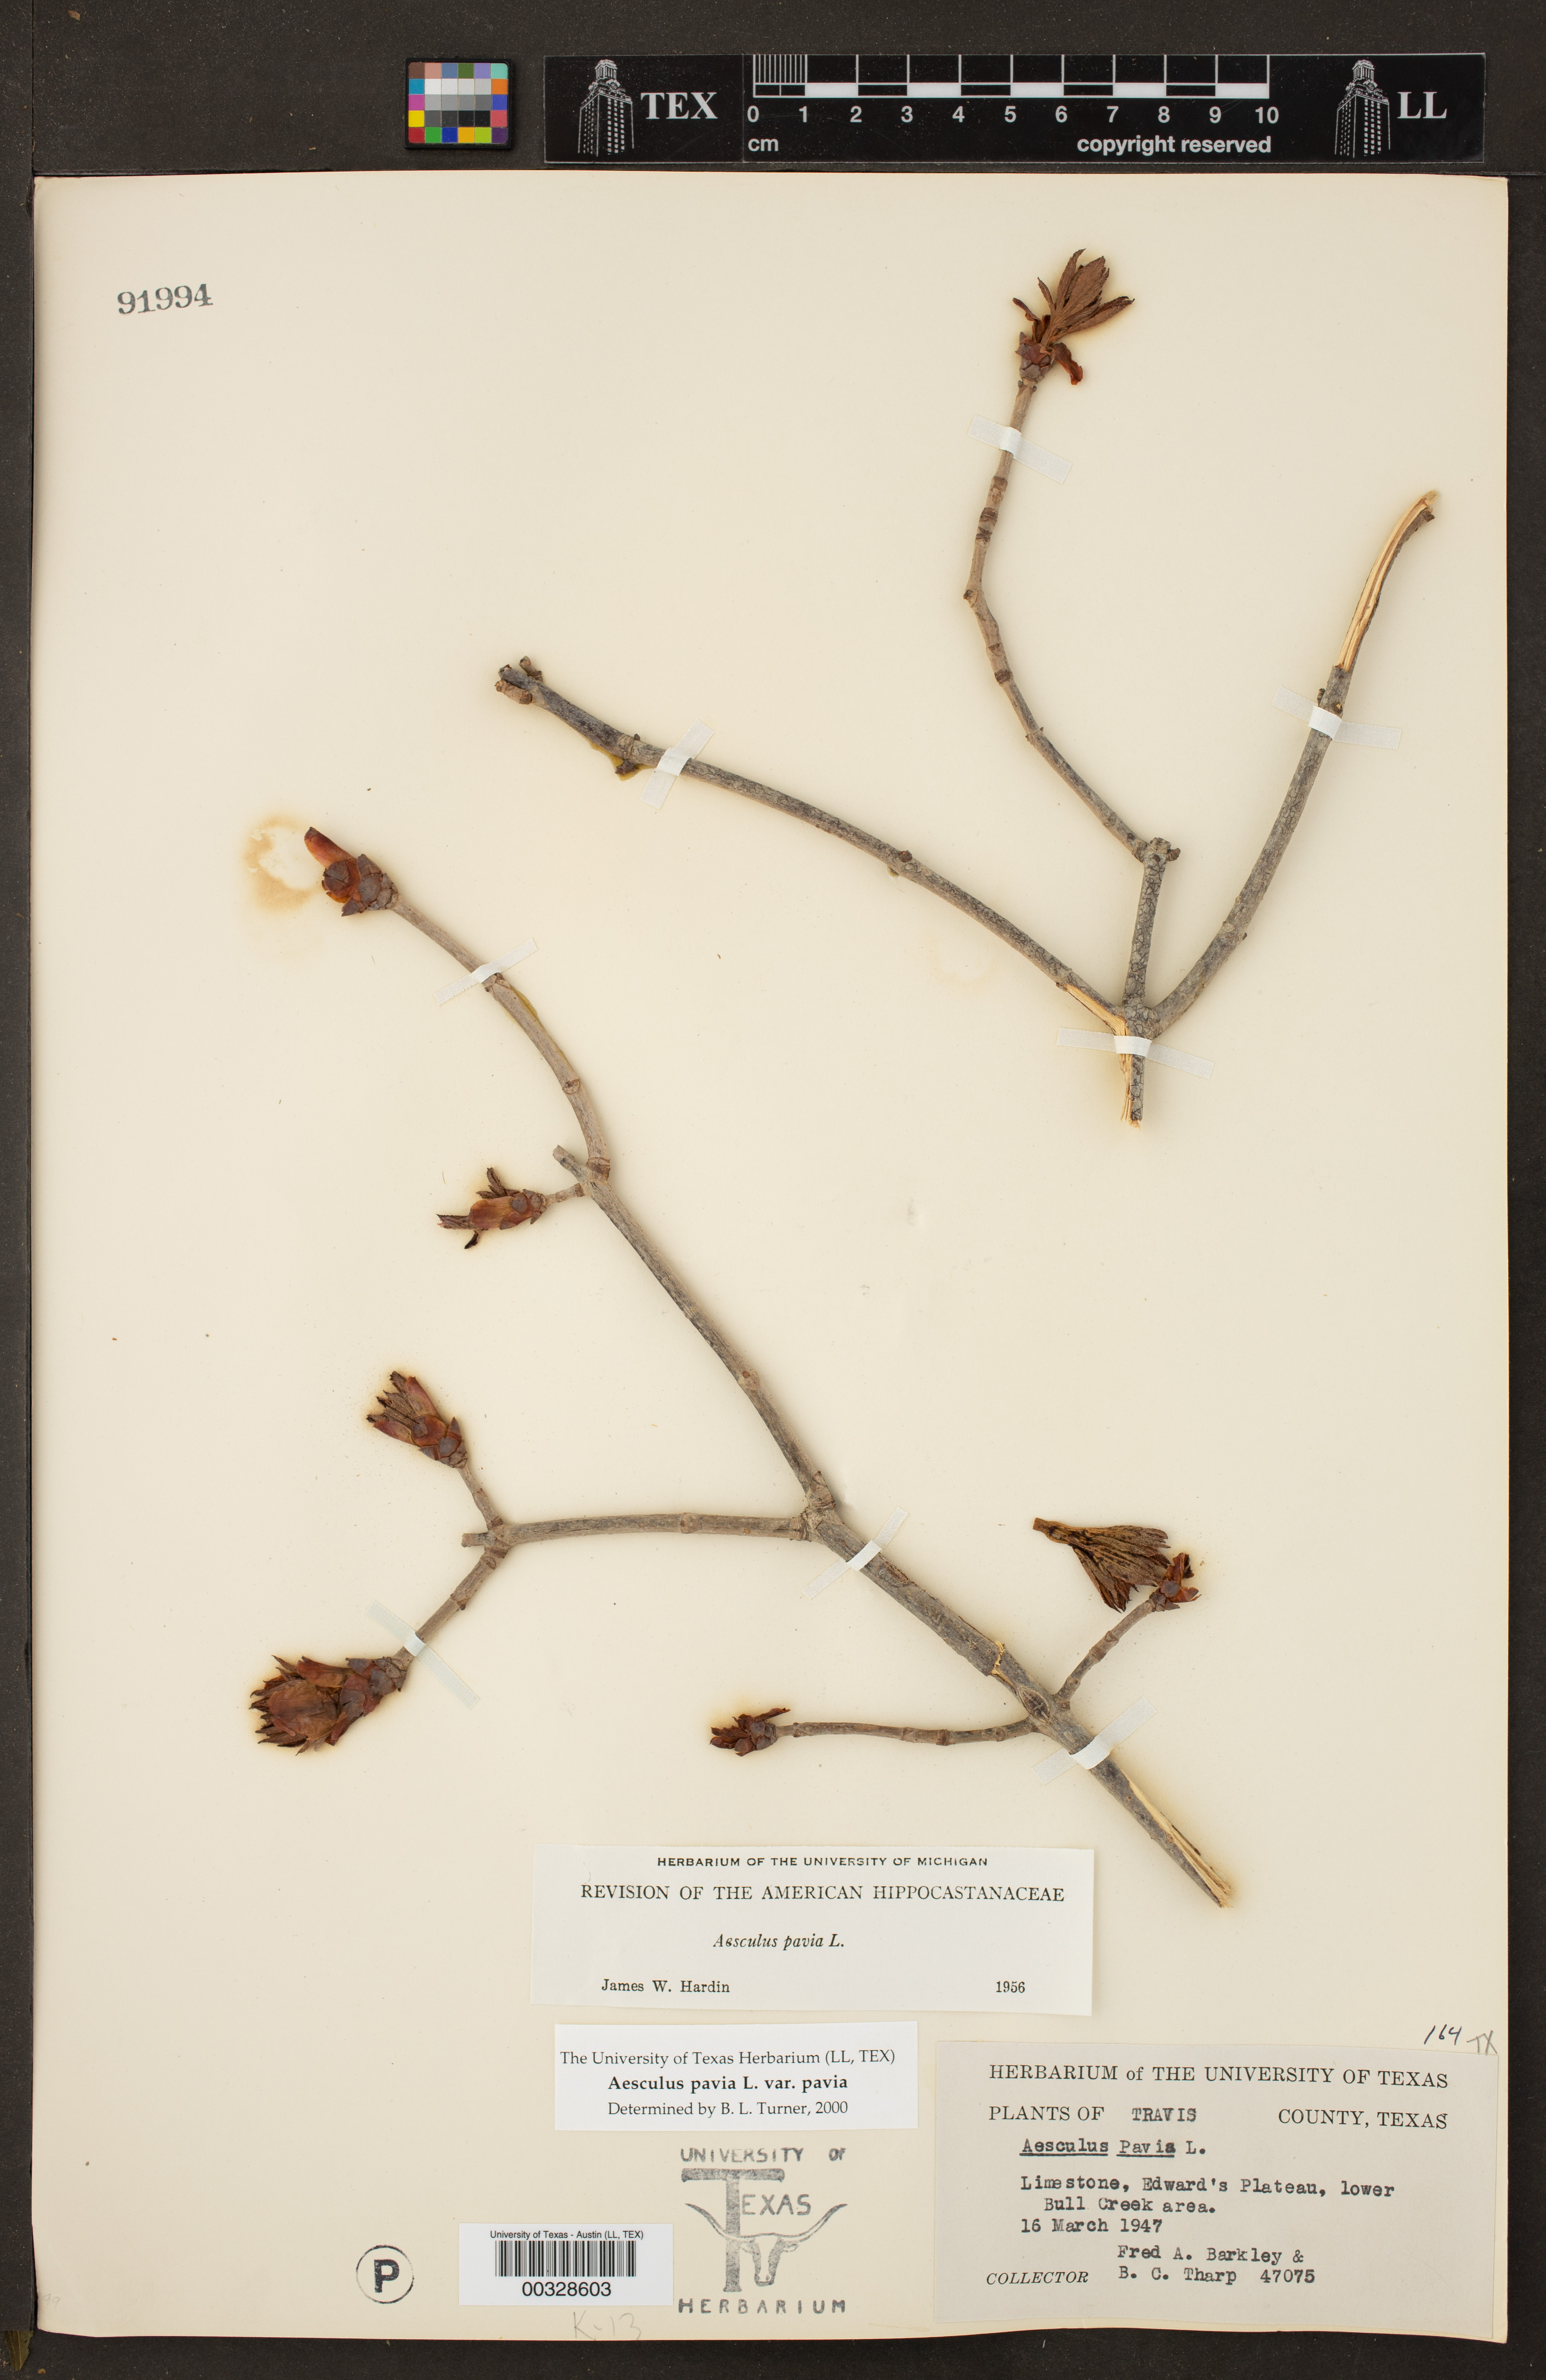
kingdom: Plantae
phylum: Tracheophyta
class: Magnoliopsida
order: Sapindales
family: Sapindaceae
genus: Aesculus
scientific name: Aesculus pavia
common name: Red buckeye
